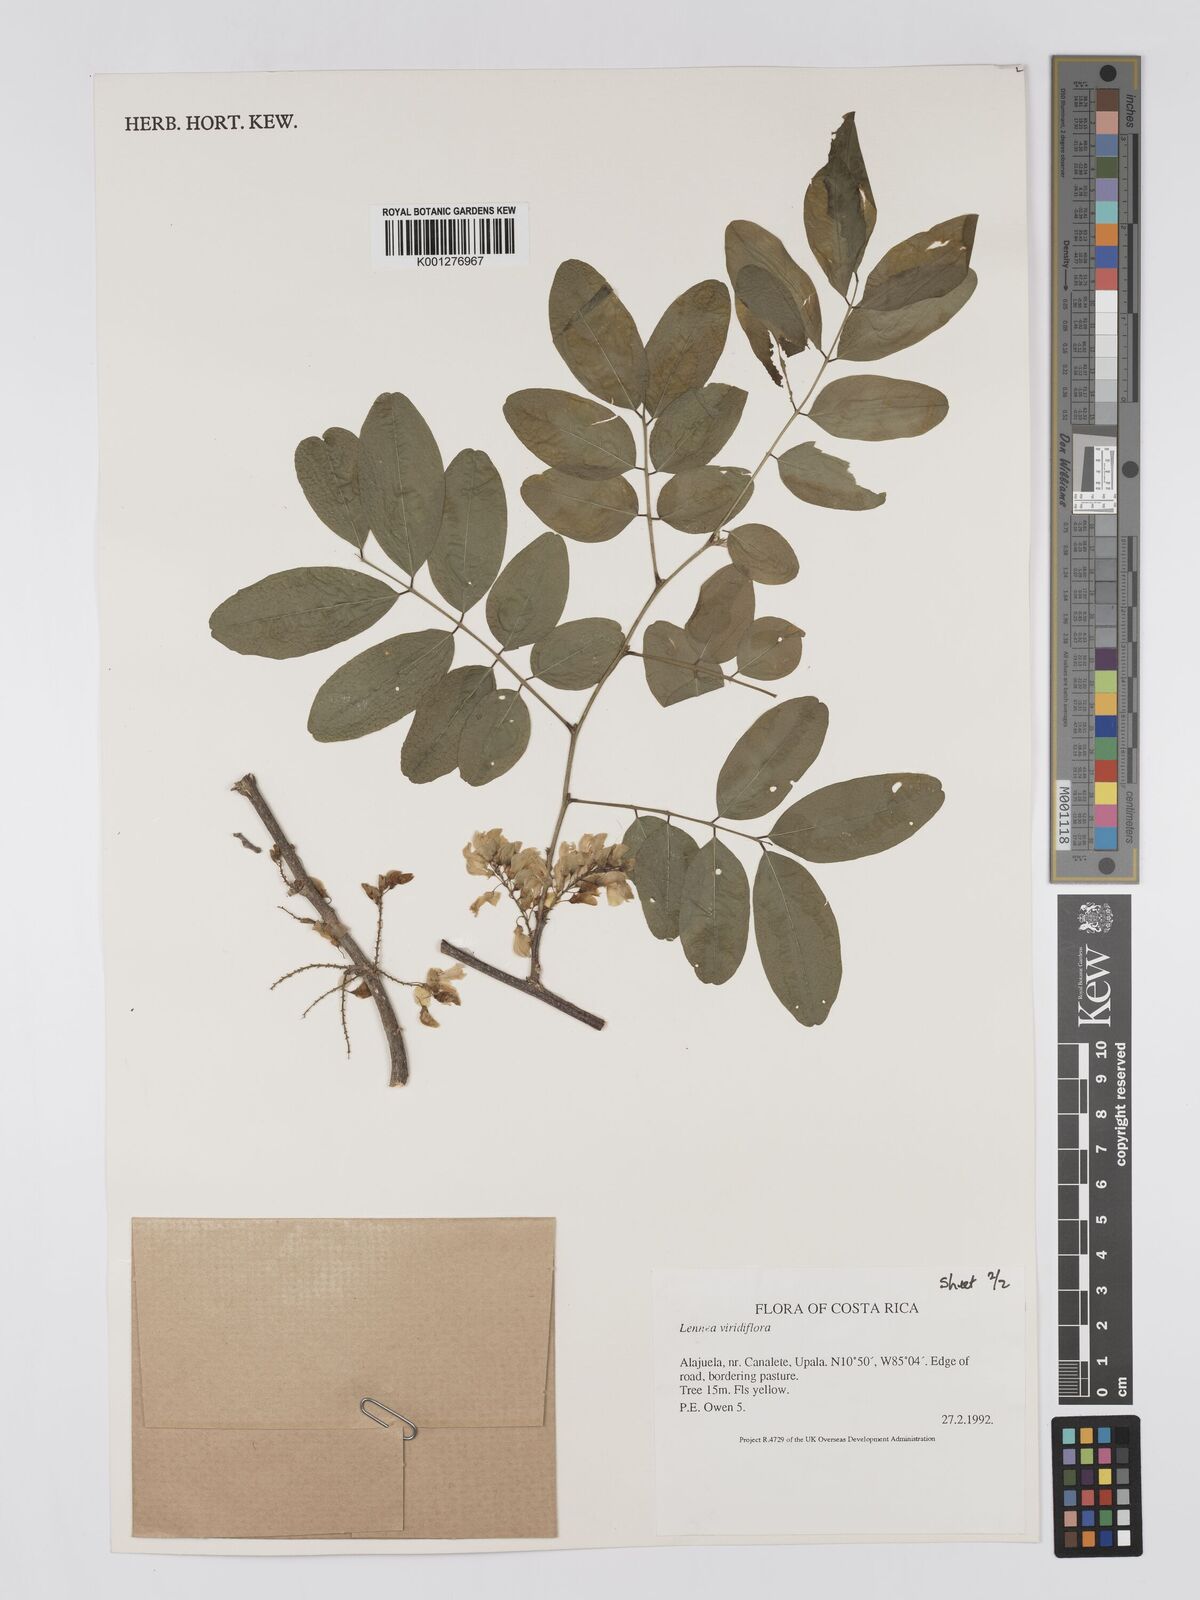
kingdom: Plantae
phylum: Tracheophyta
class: Magnoliopsida
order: Fabales
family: Fabaceae
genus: Lennea
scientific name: Lennea viridiflora
